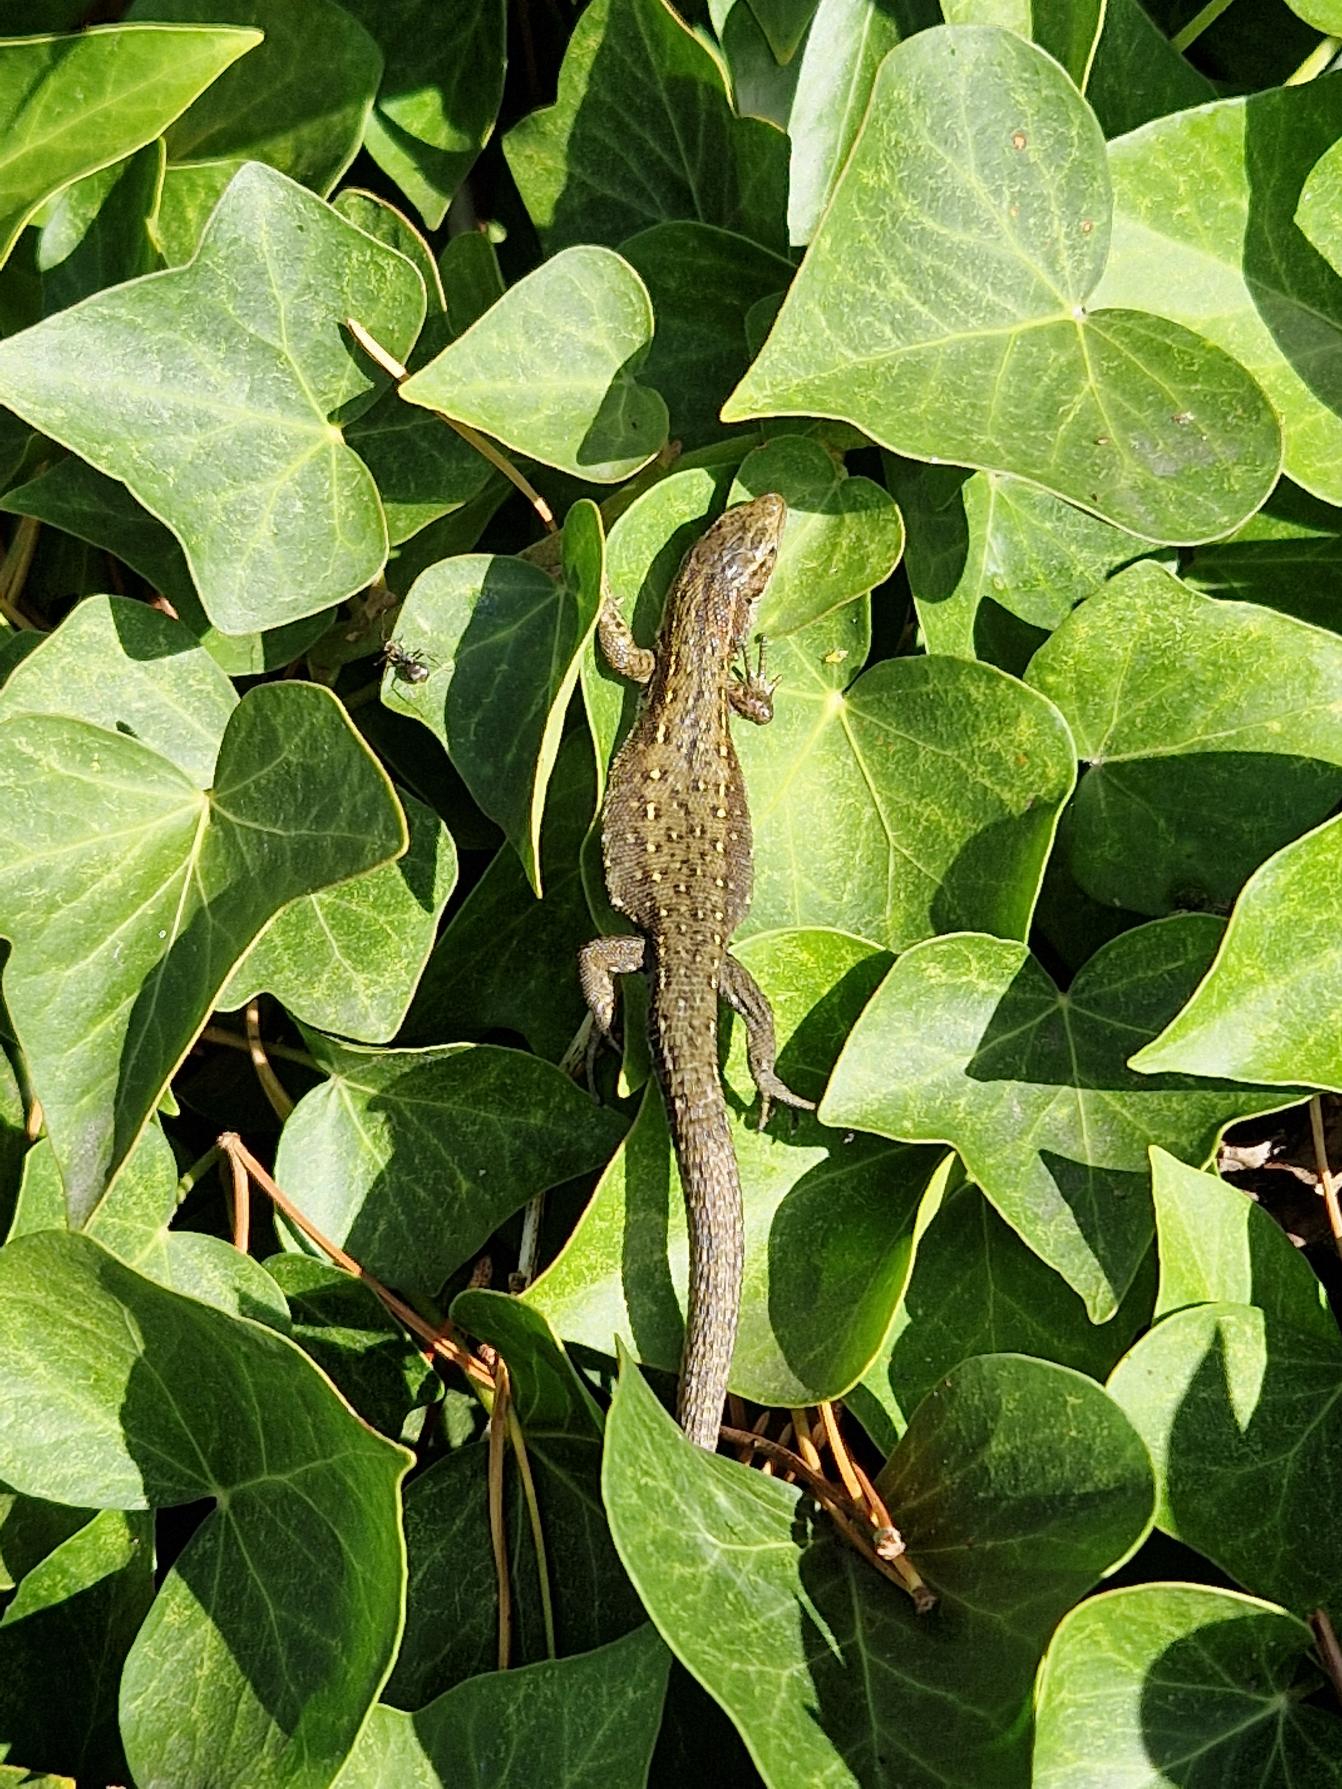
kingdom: Animalia
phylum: Chordata
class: Squamata
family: Lacertidae
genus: Zootoca
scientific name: Zootoca vivipara
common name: Skovfirben
